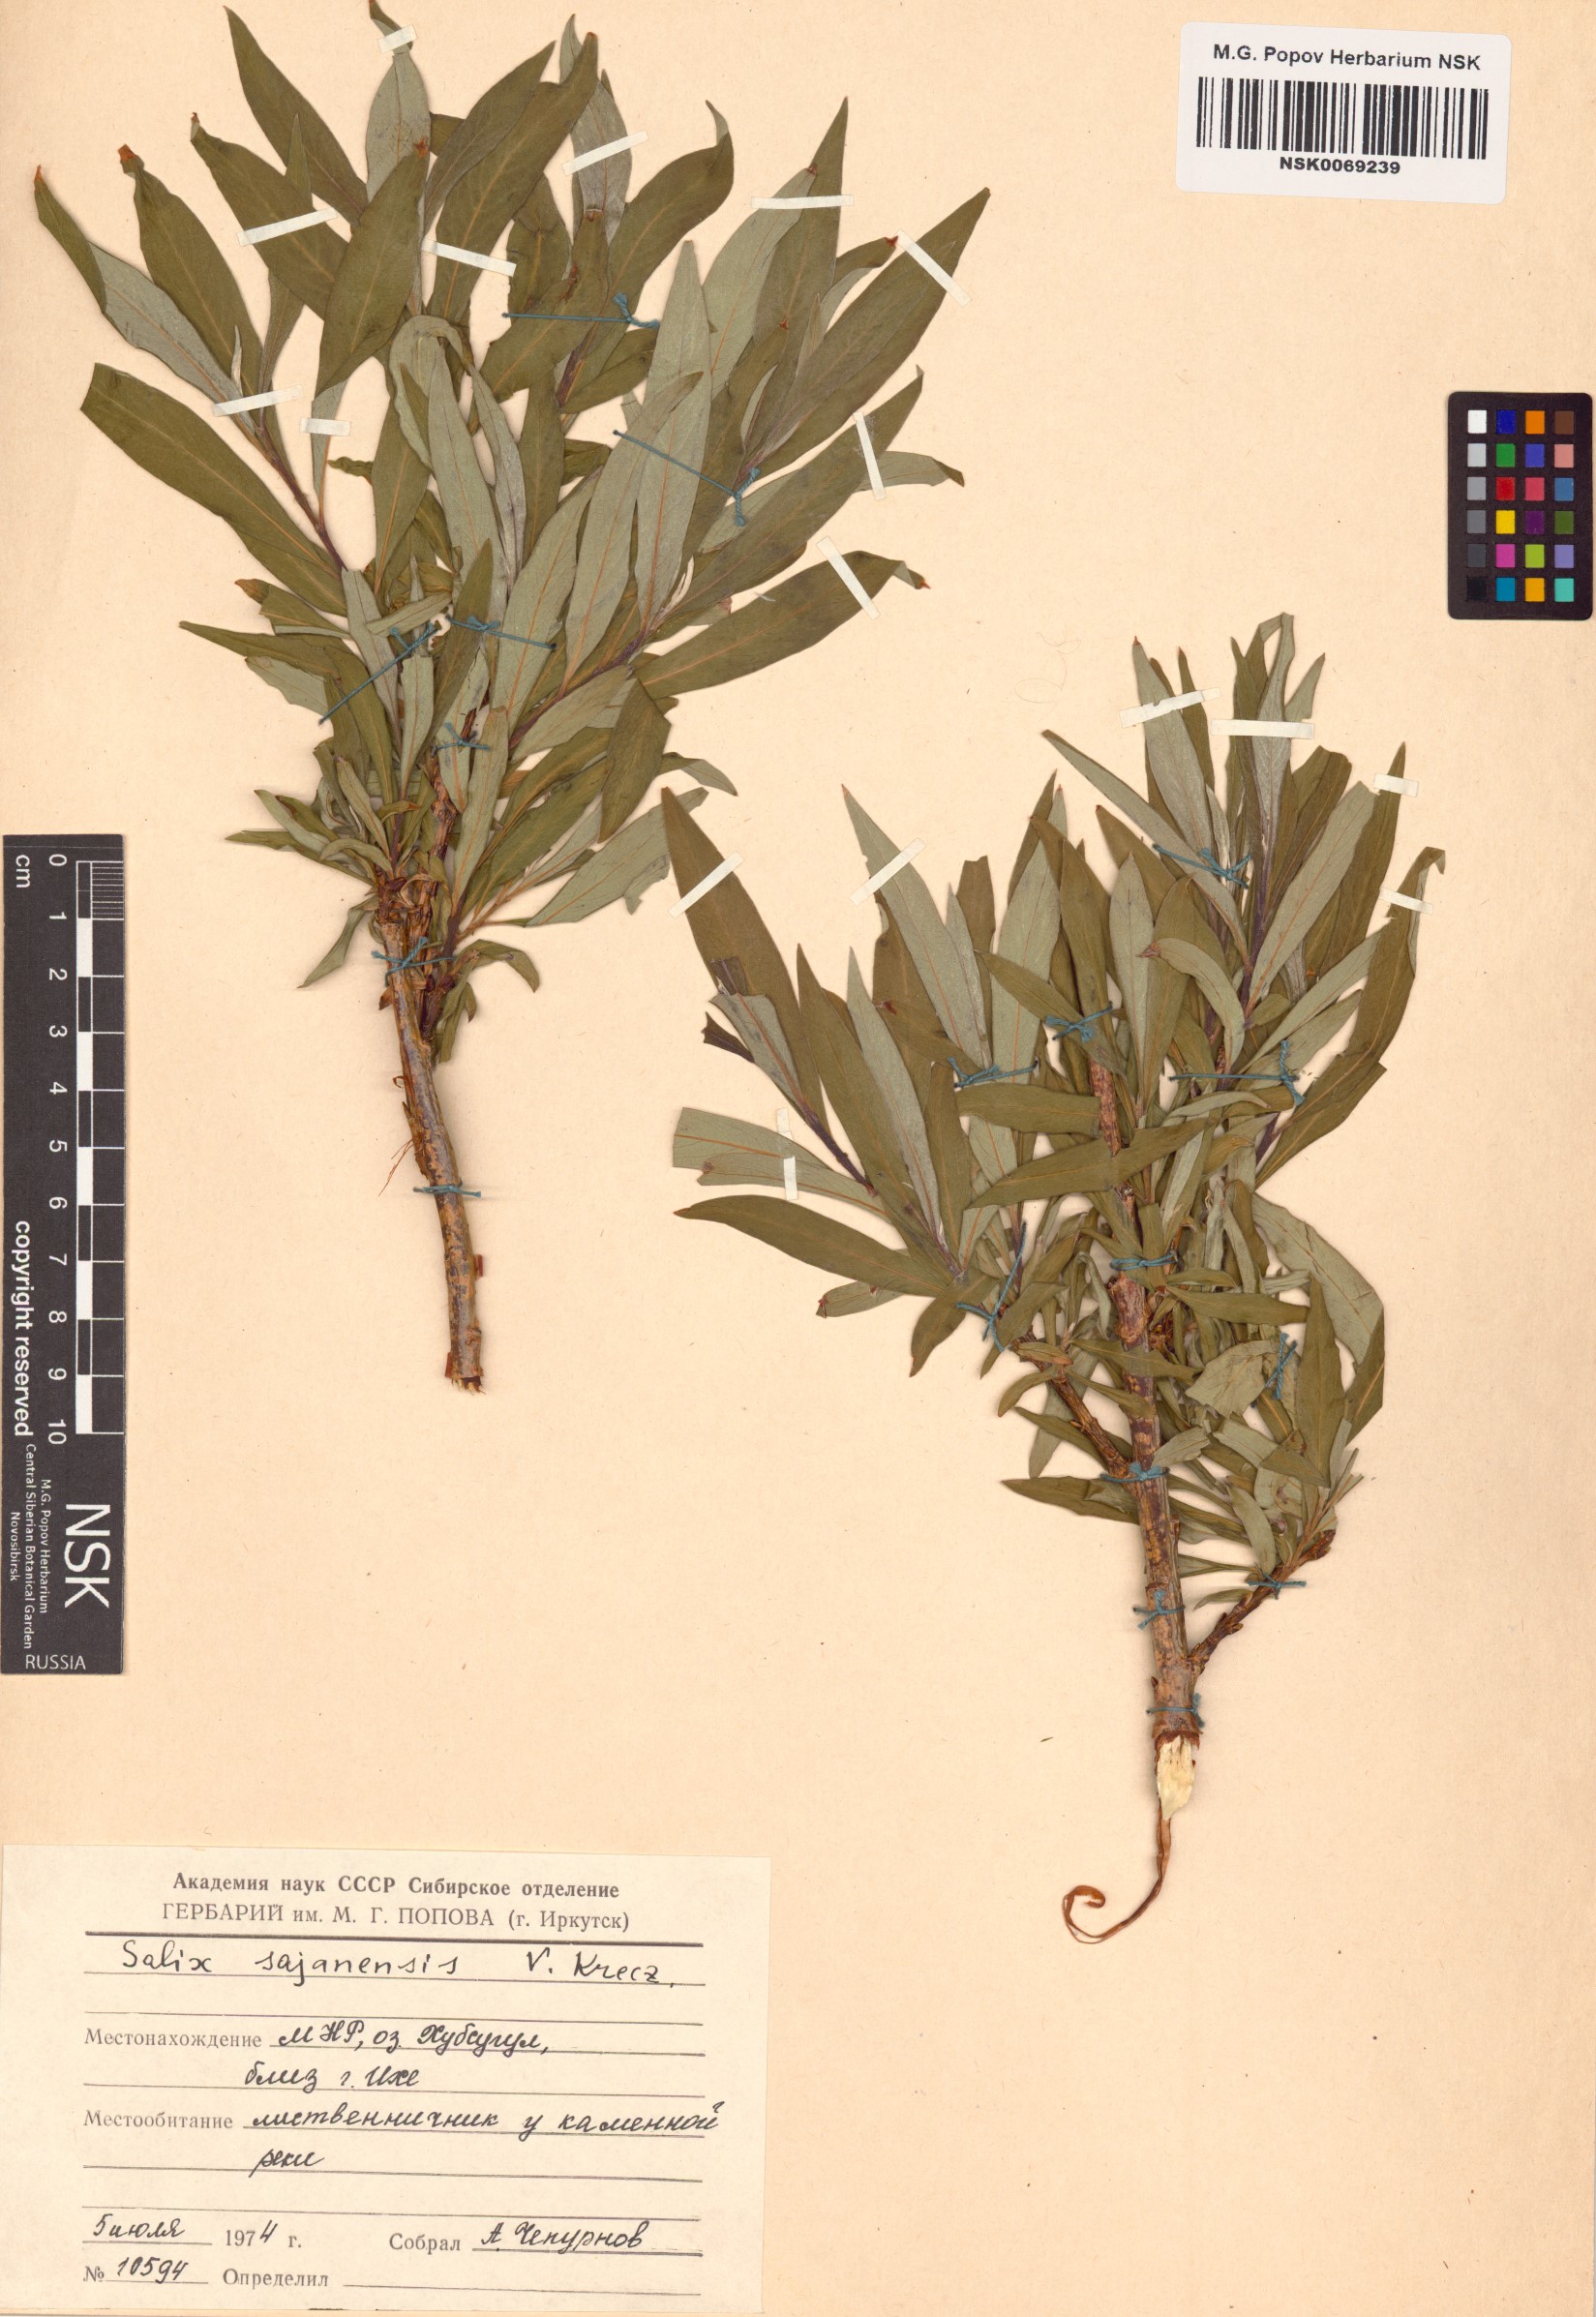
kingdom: Plantae
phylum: Tracheophyta
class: Magnoliopsida
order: Malpighiales
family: Salicaceae
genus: Salix
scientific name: Salix sajanensis
